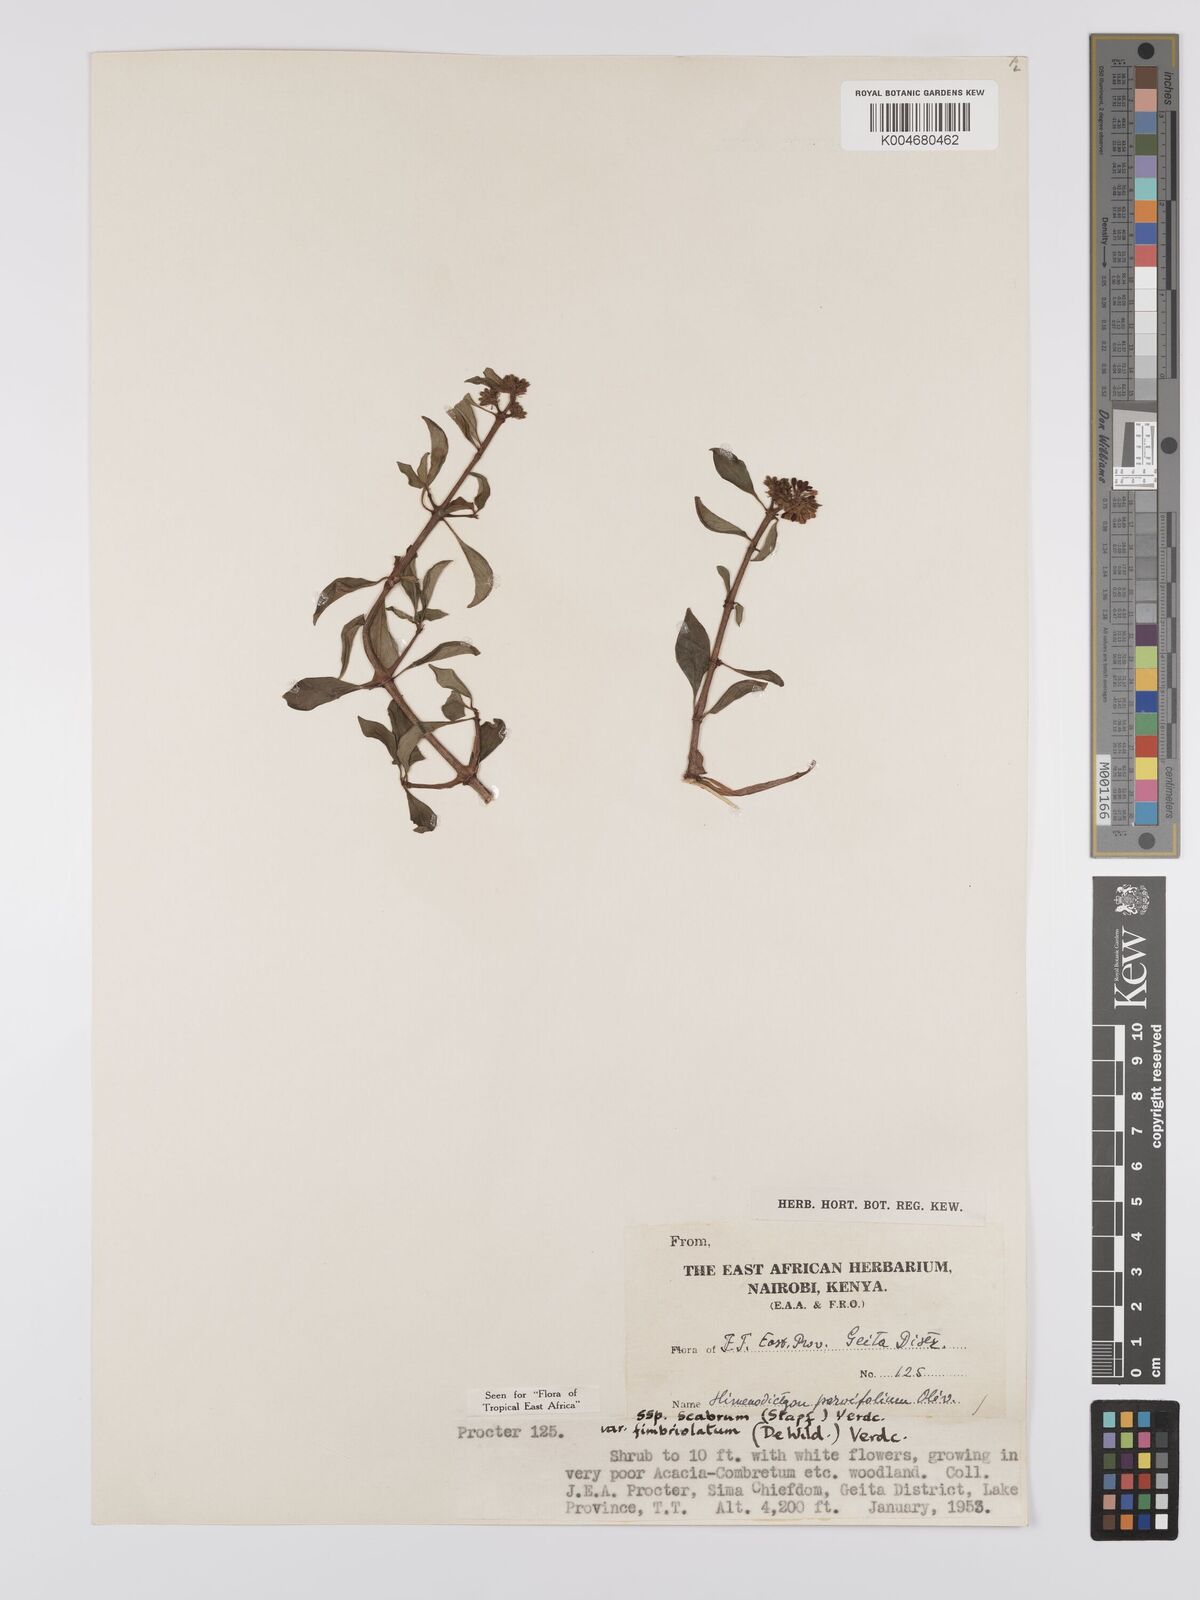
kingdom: Plantae
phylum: Tracheophyta
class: Magnoliopsida
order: Gentianales
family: Rubiaceae
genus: Hymenodictyon
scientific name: Hymenodictyon scabrum
